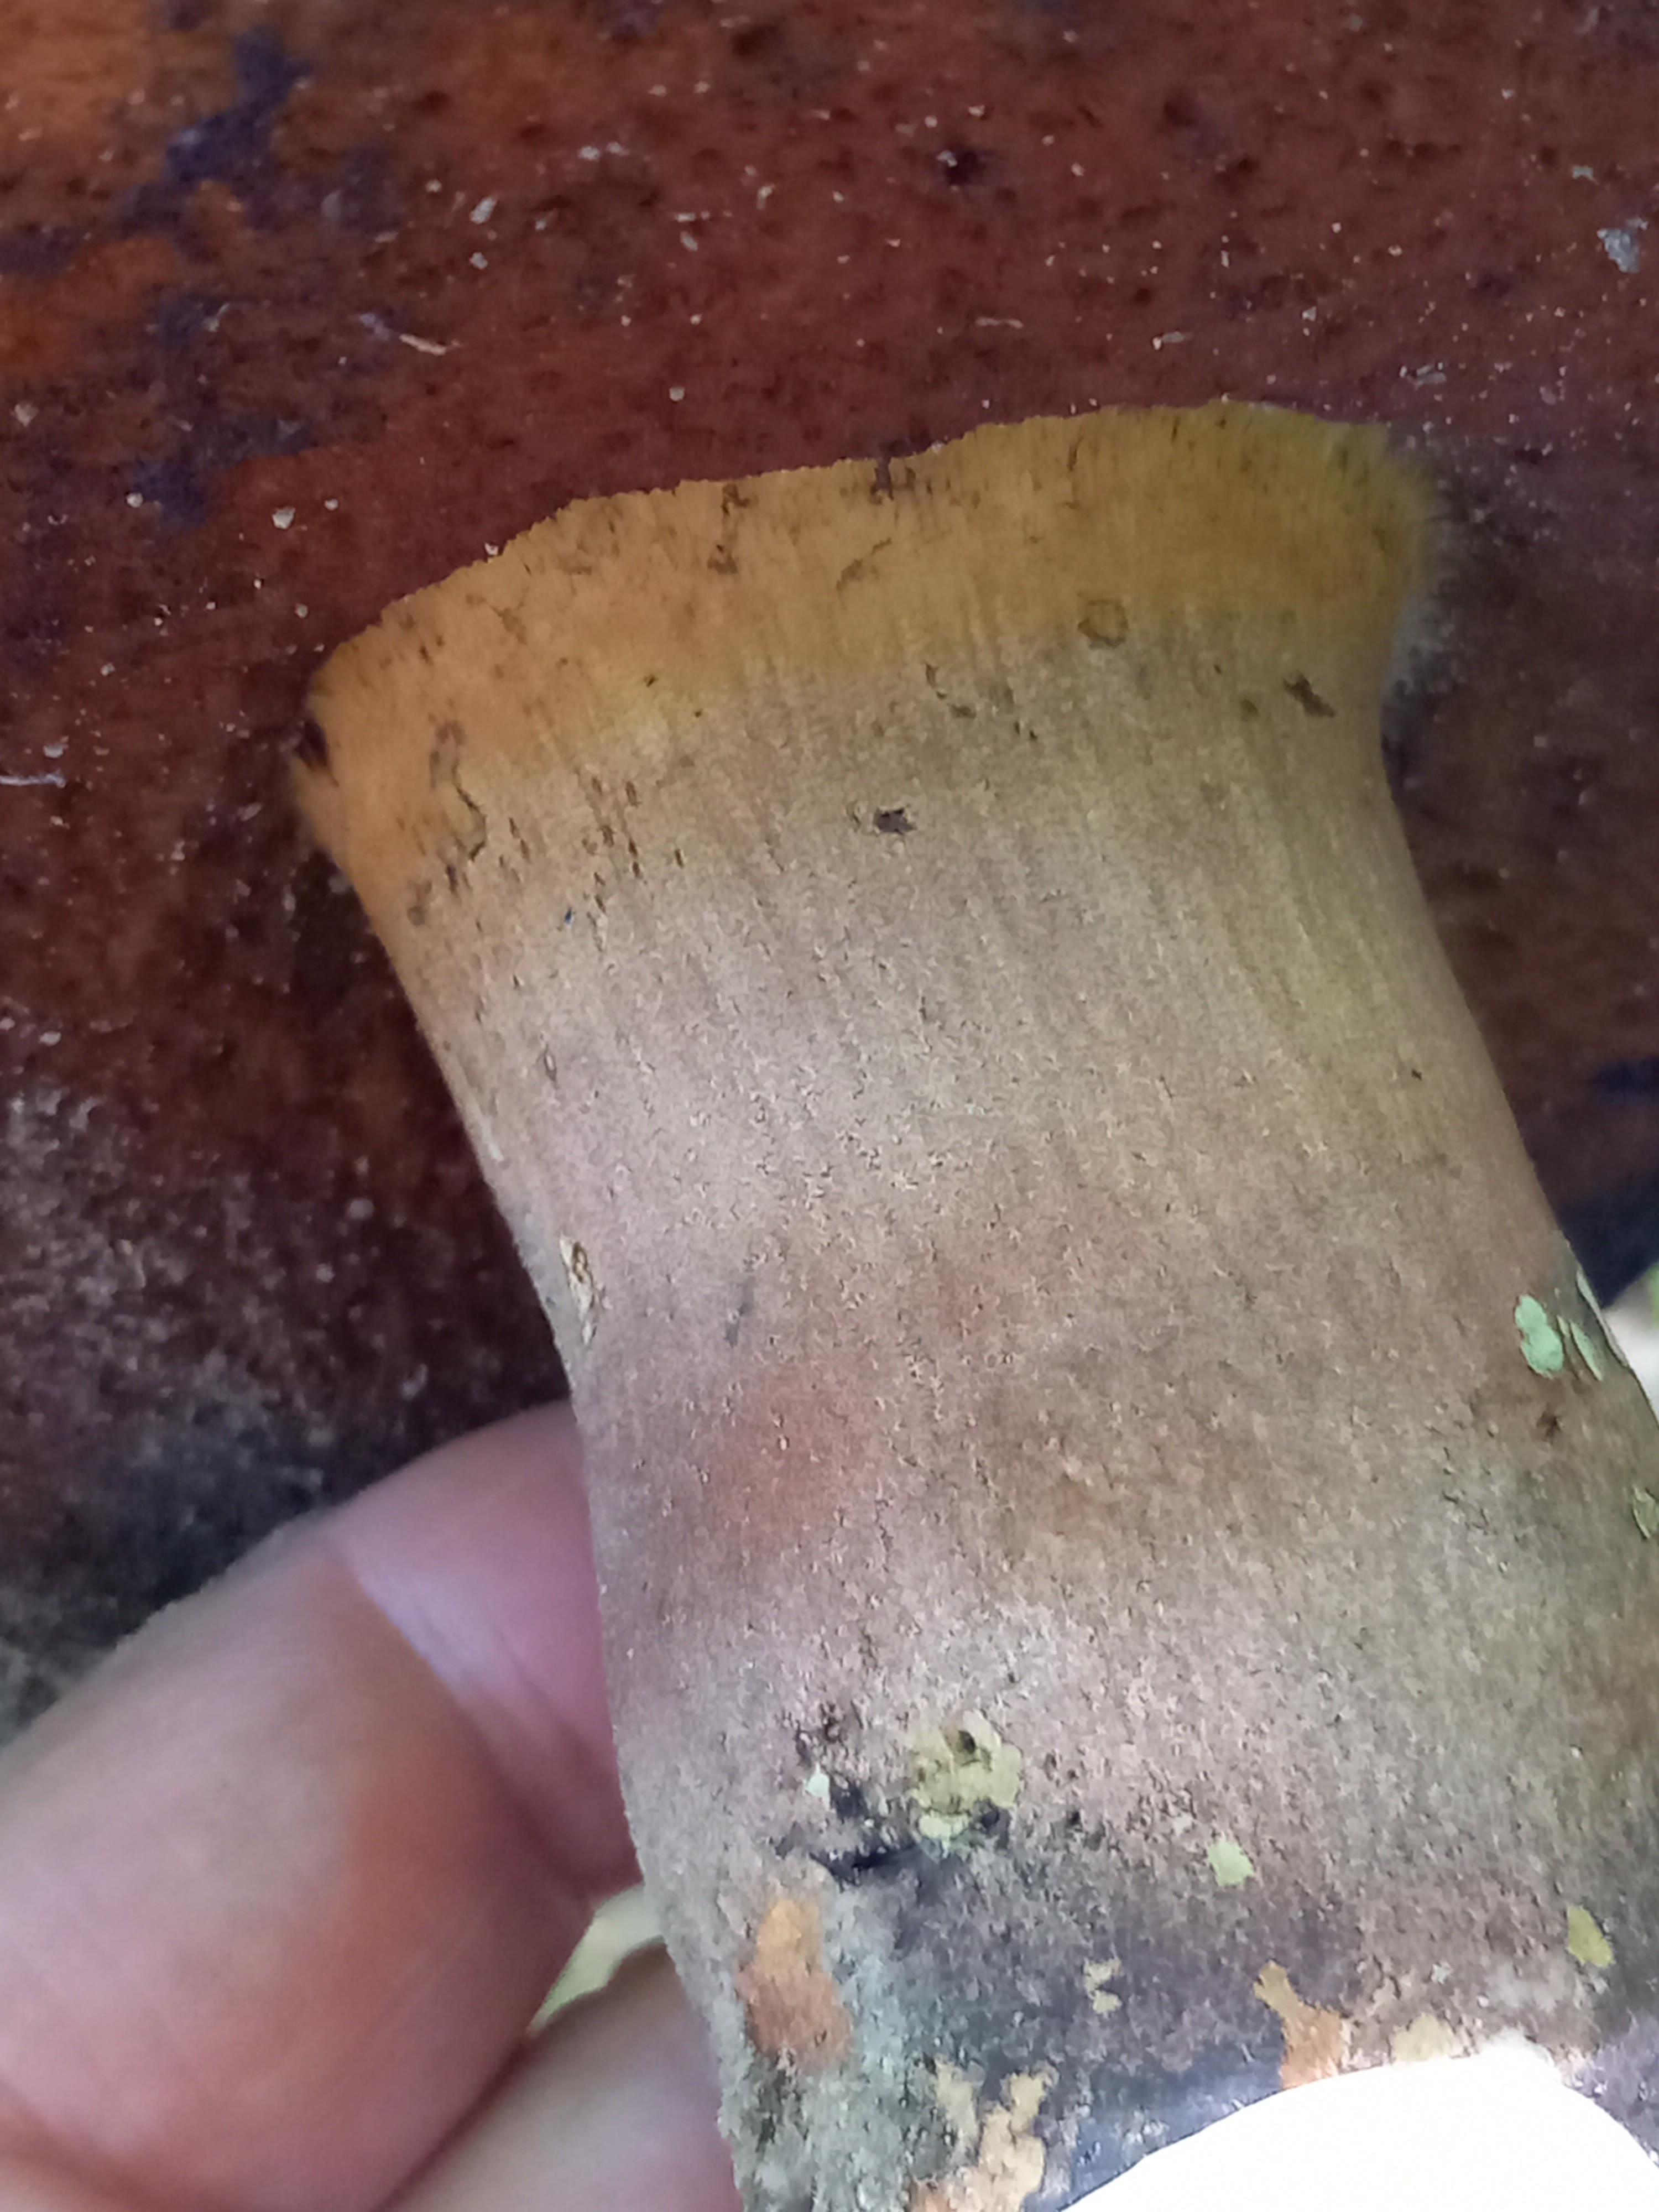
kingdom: Fungi
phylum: Basidiomycota
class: Agaricomycetes
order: Boletales
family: Boletaceae
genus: Neoboletus
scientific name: Neoboletus erythropus
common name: punktstokket indigorørhat
